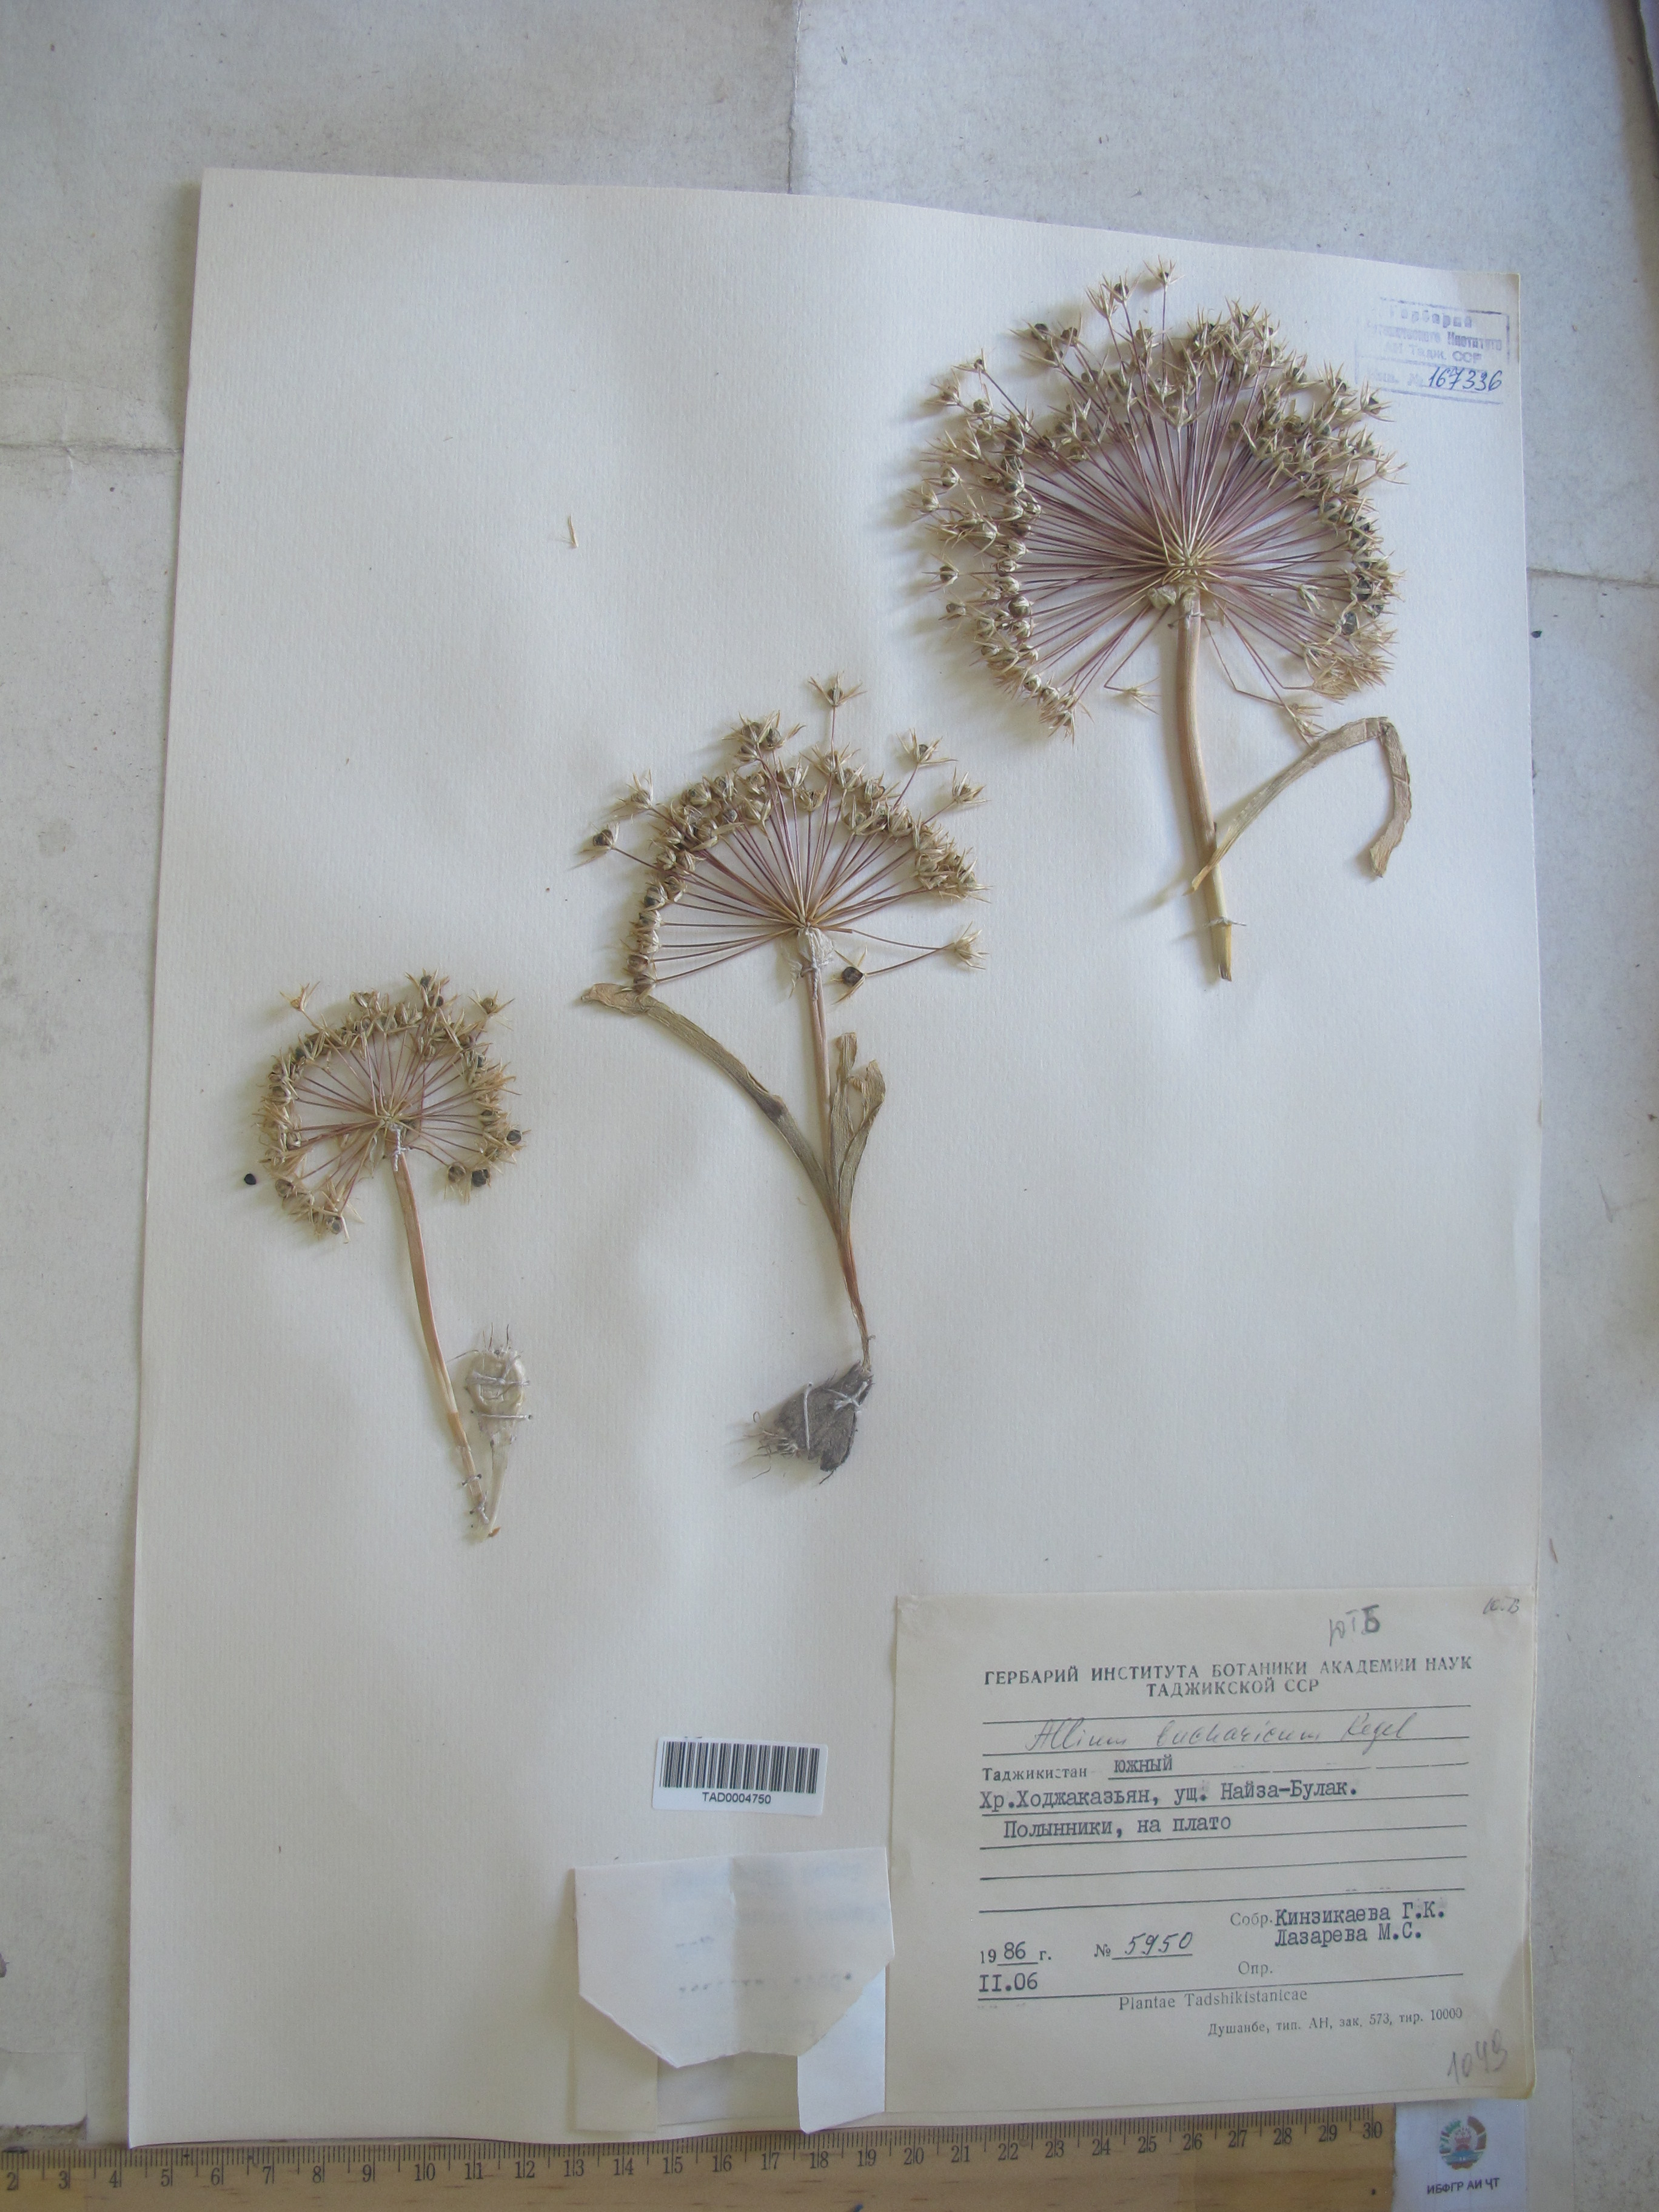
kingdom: Plantae
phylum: Tracheophyta
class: Liliopsida
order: Asparagales
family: Amaryllidaceae
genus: Allium
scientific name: Allium bucharicum
